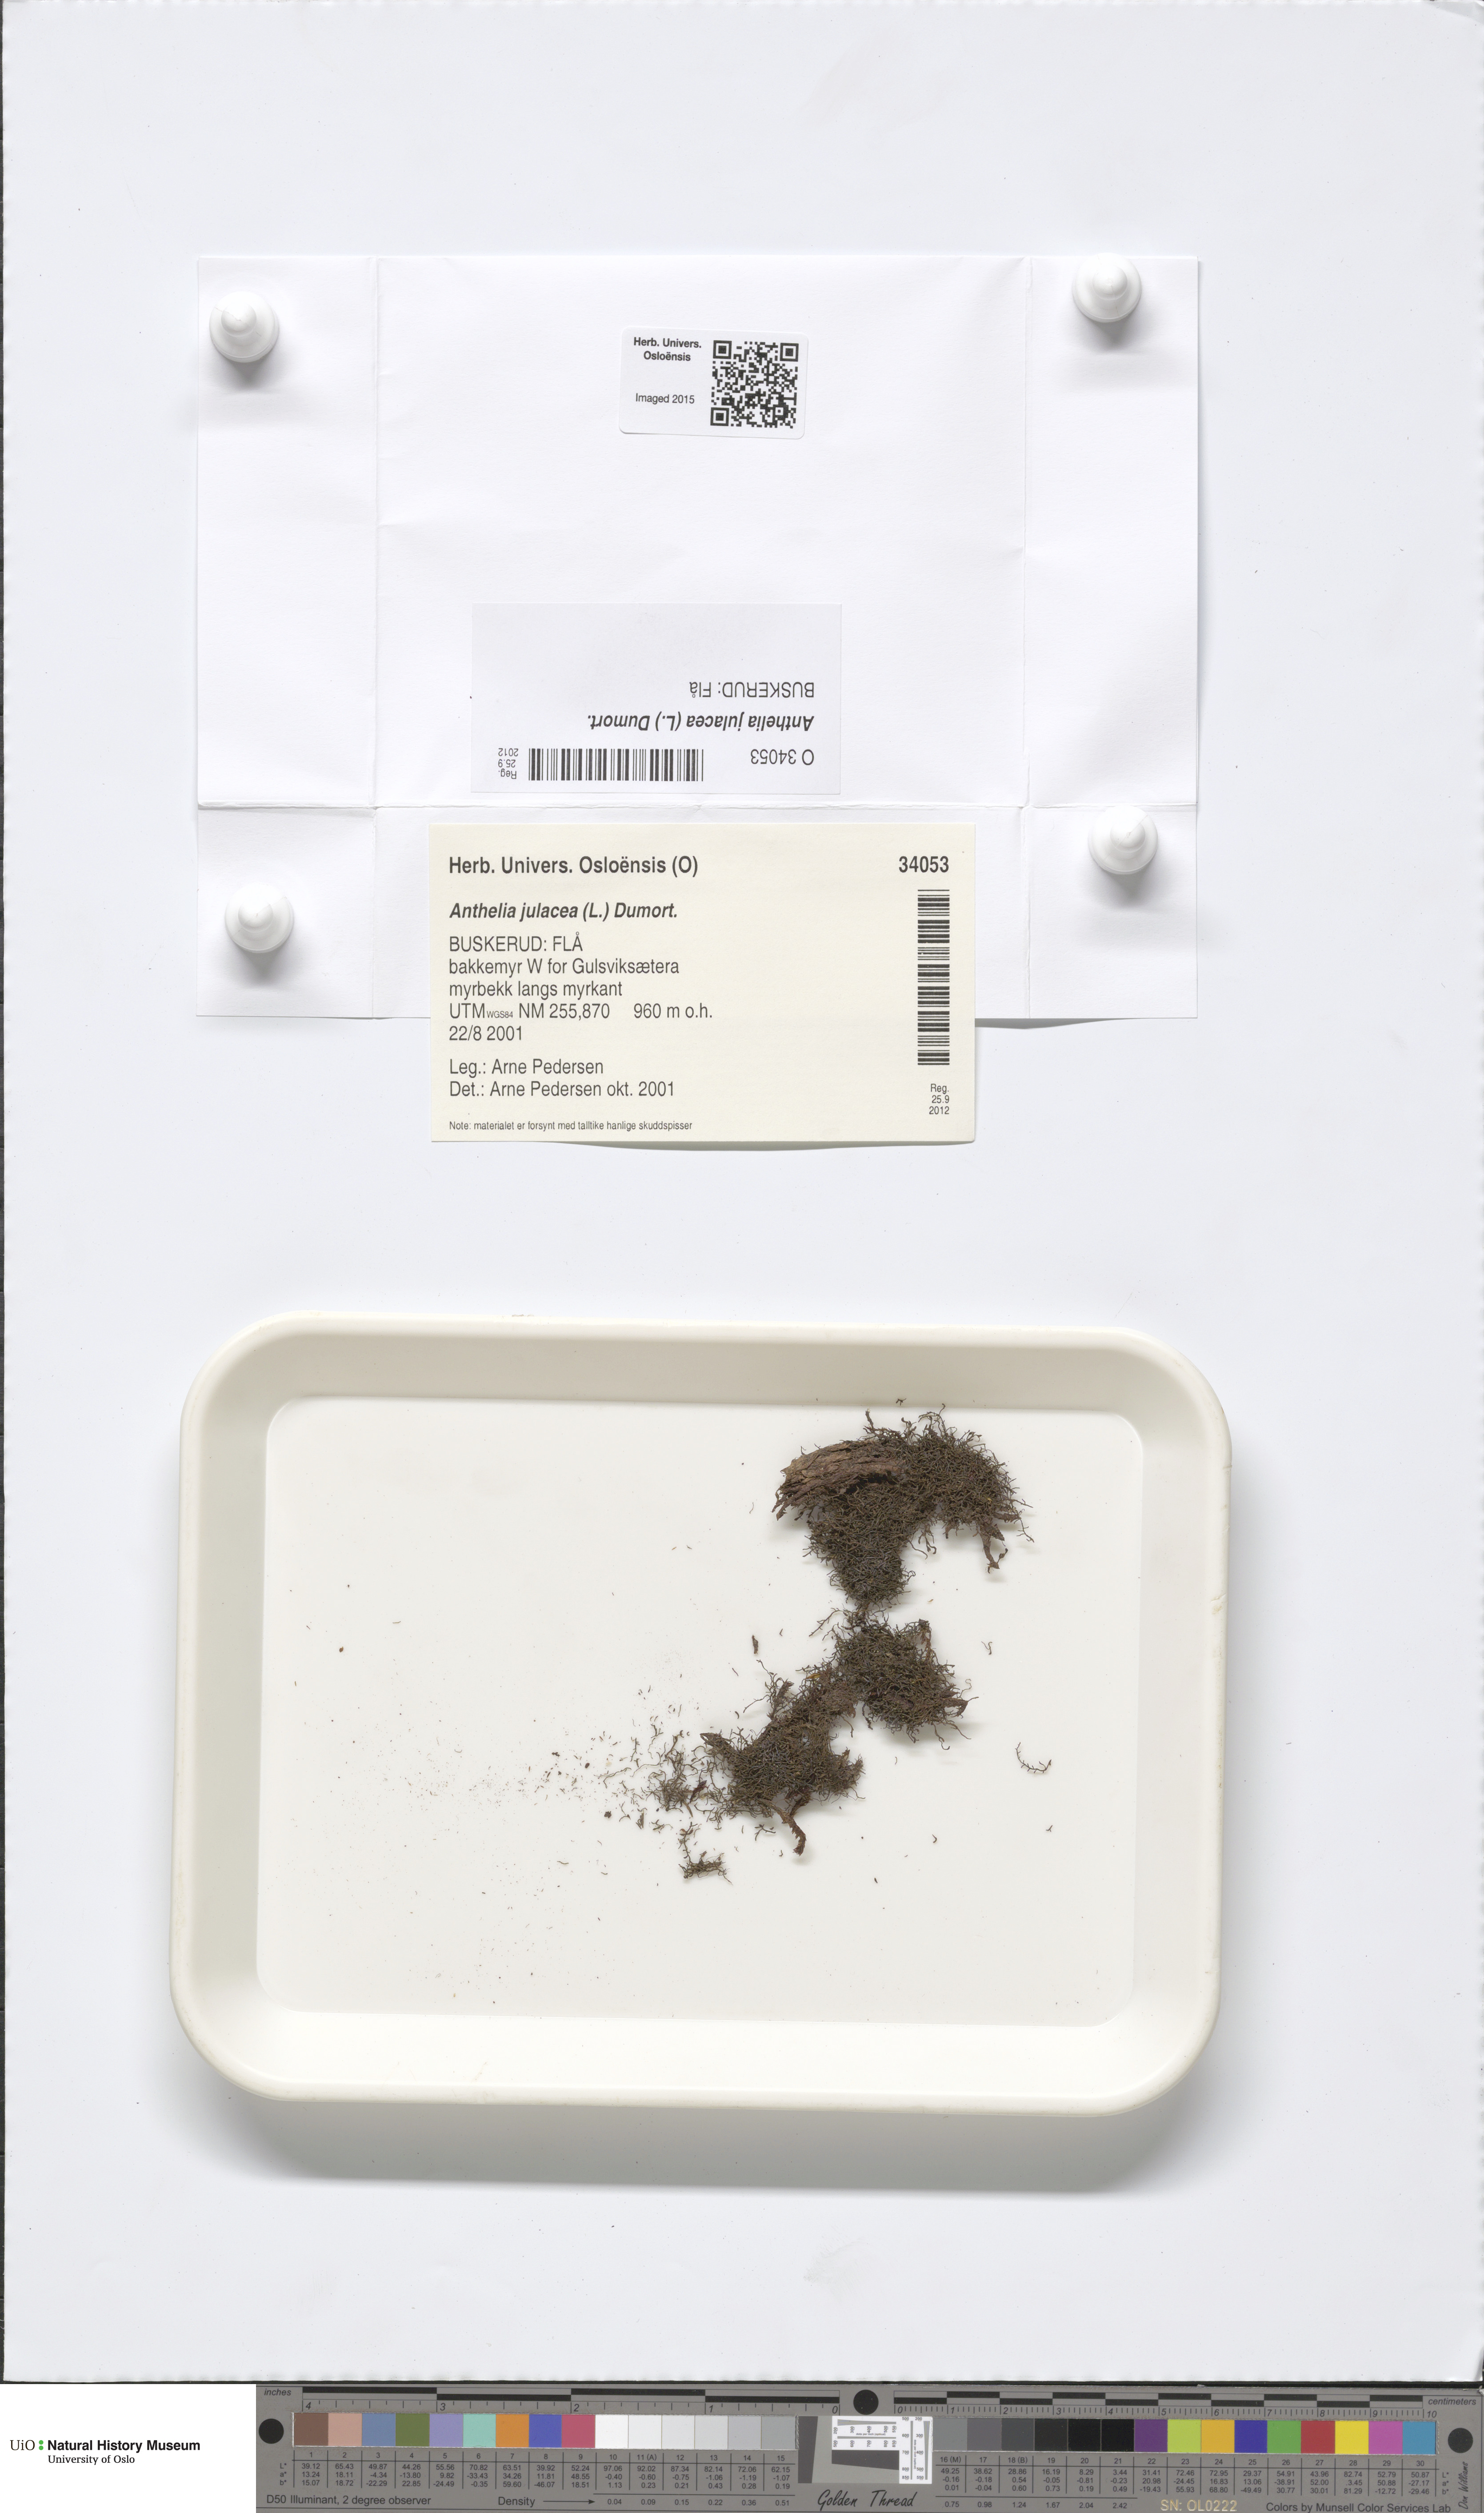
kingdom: Plantae
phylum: Marchantiophyta
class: Jungermanniopsida
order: Jungermanniales
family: Antheliaceae
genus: Anthelia
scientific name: Anthelia julacea
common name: Alpine silverwort
